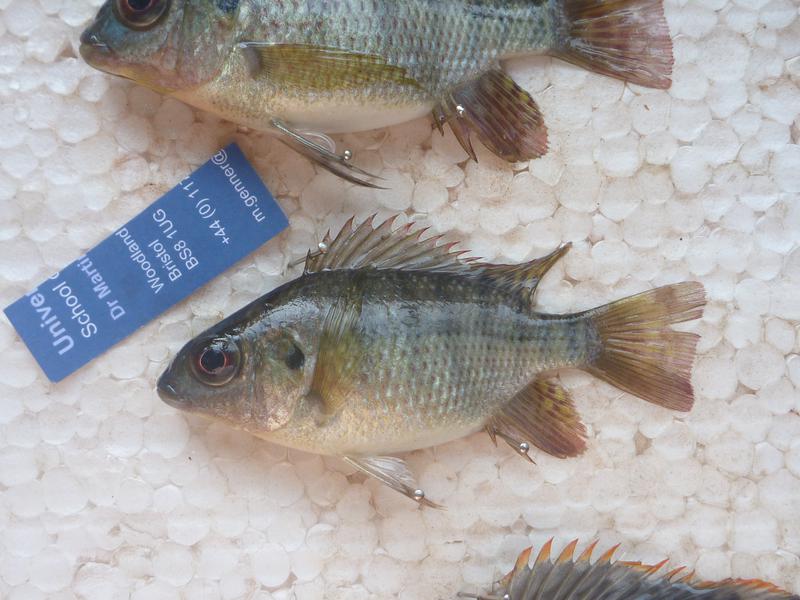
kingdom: Animalia
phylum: Chordata
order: Perciformes
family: Cichlidae
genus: Oreochromis
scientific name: Oreochromis upembae
